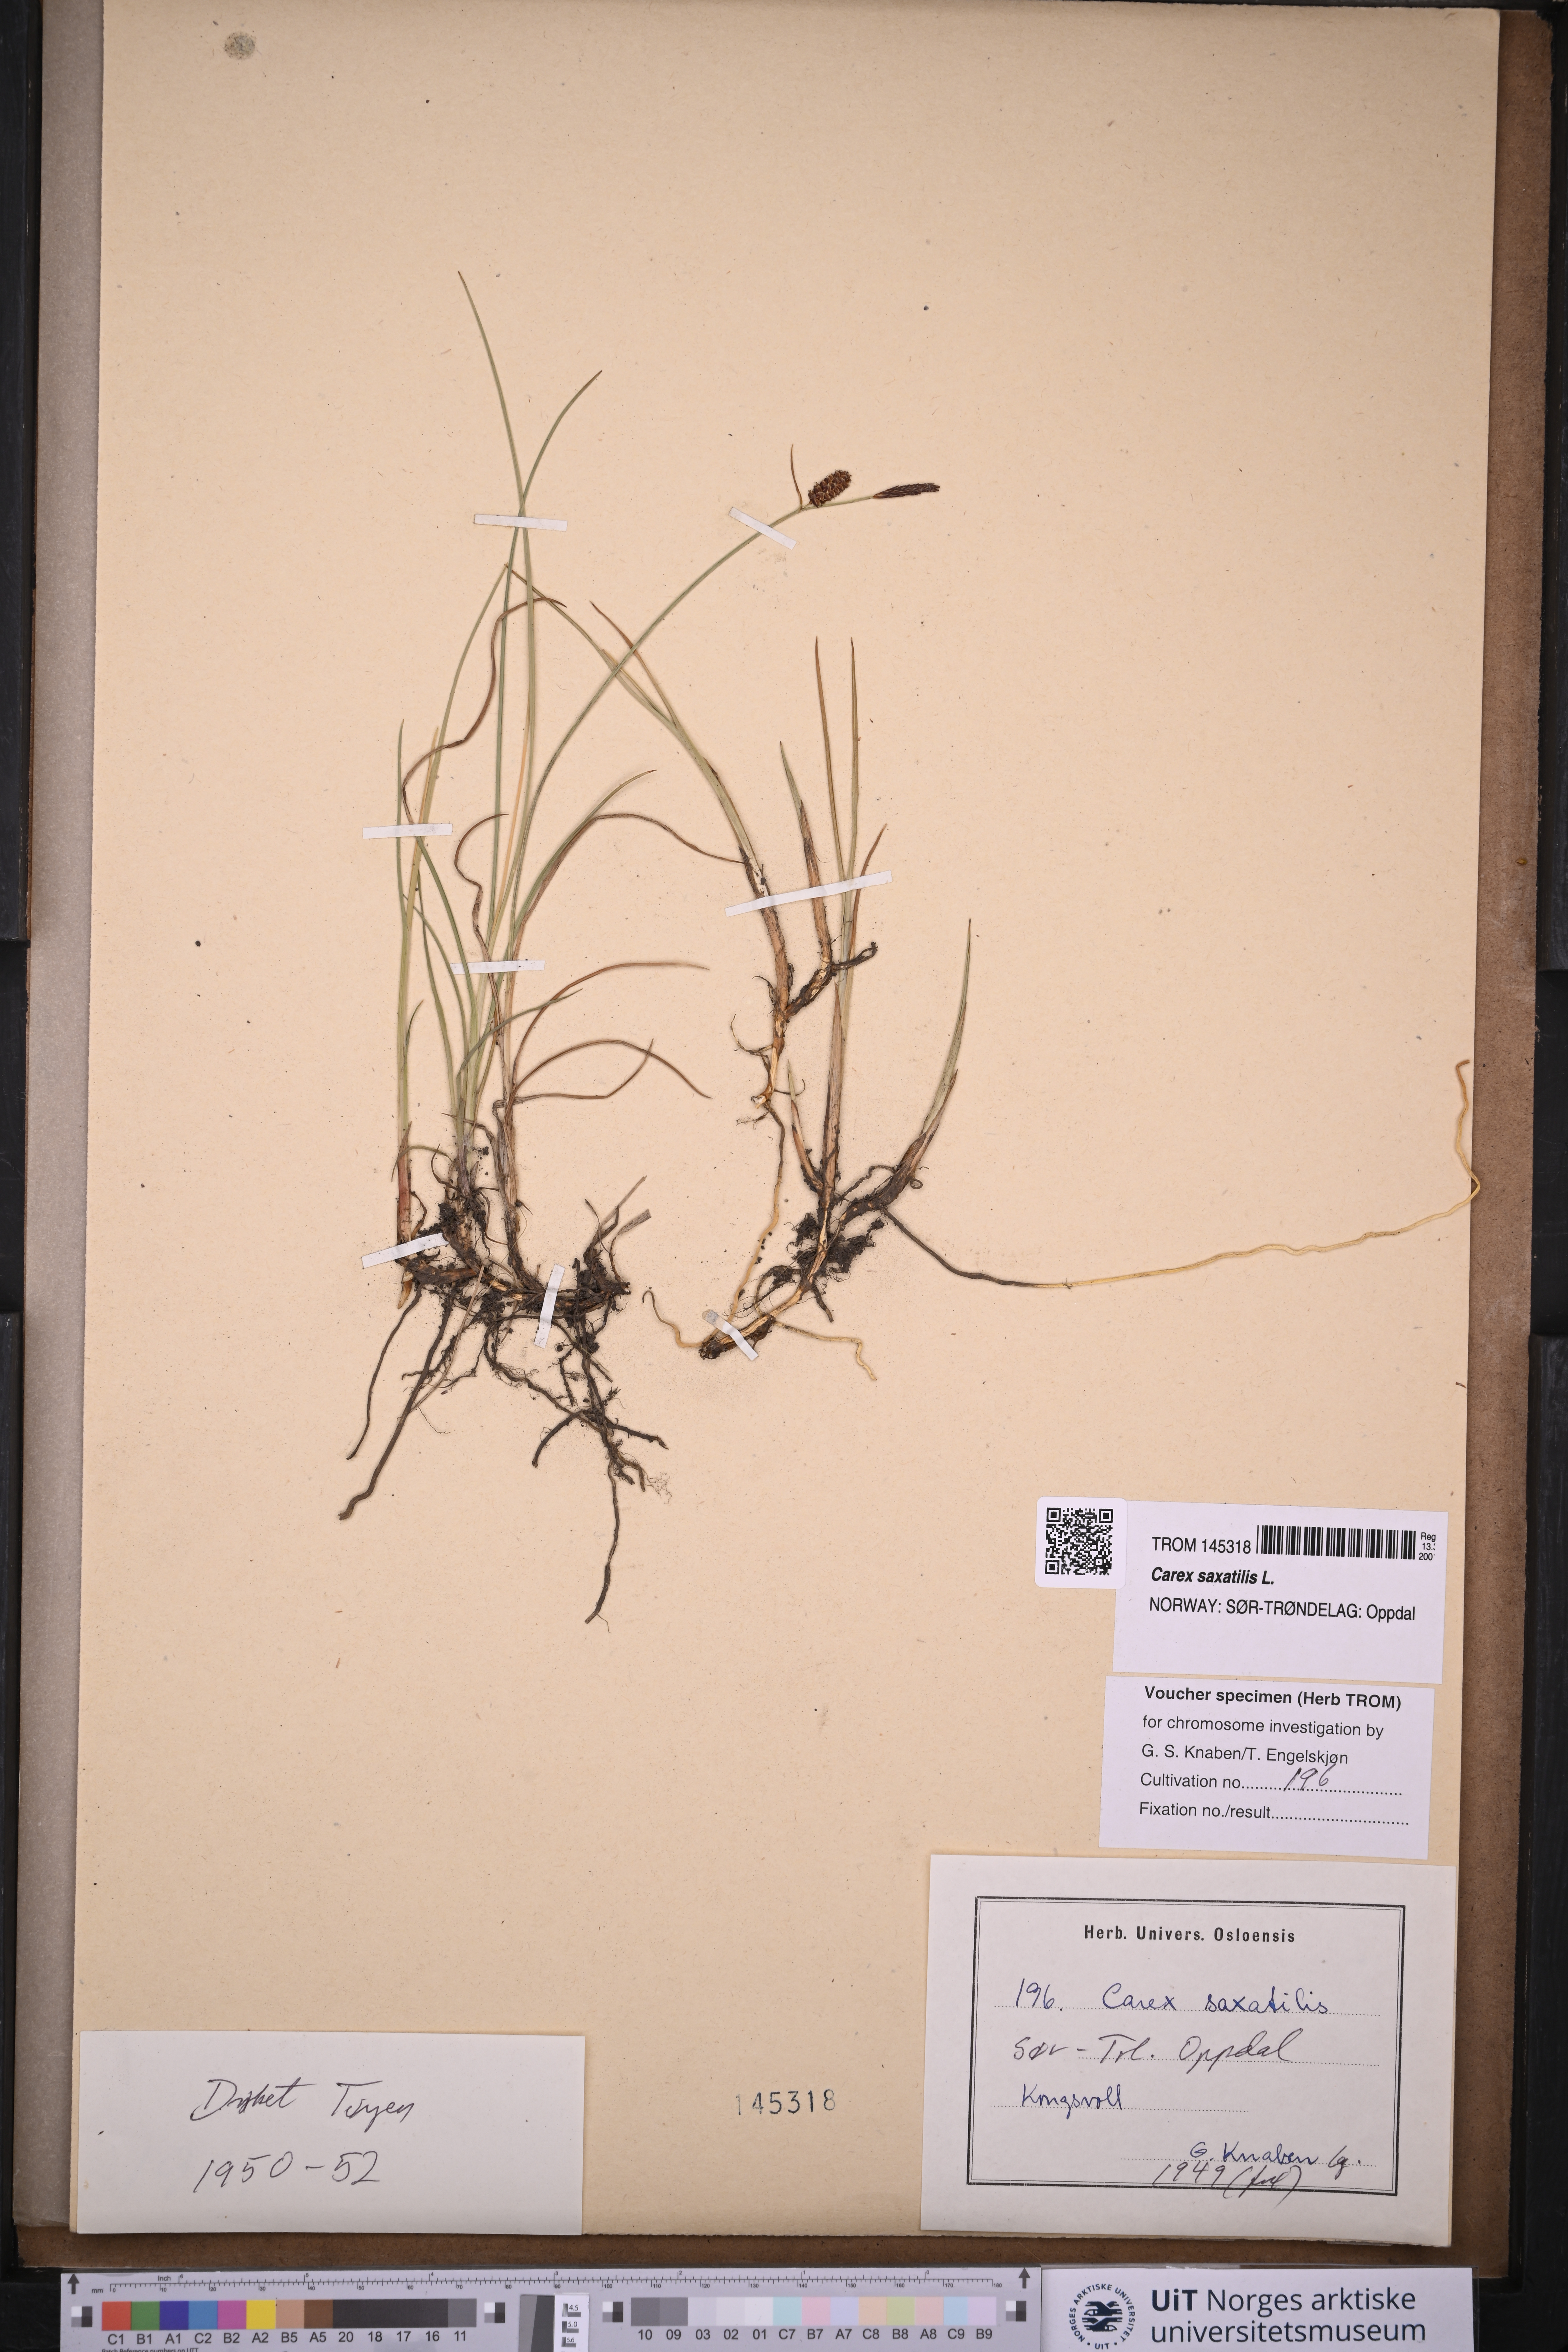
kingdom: Plantae
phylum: Tracheophyta
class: Liliopsida
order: Poales
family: Cyperaceae
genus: Carex
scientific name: Carex saxatilis
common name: Russet sedge
